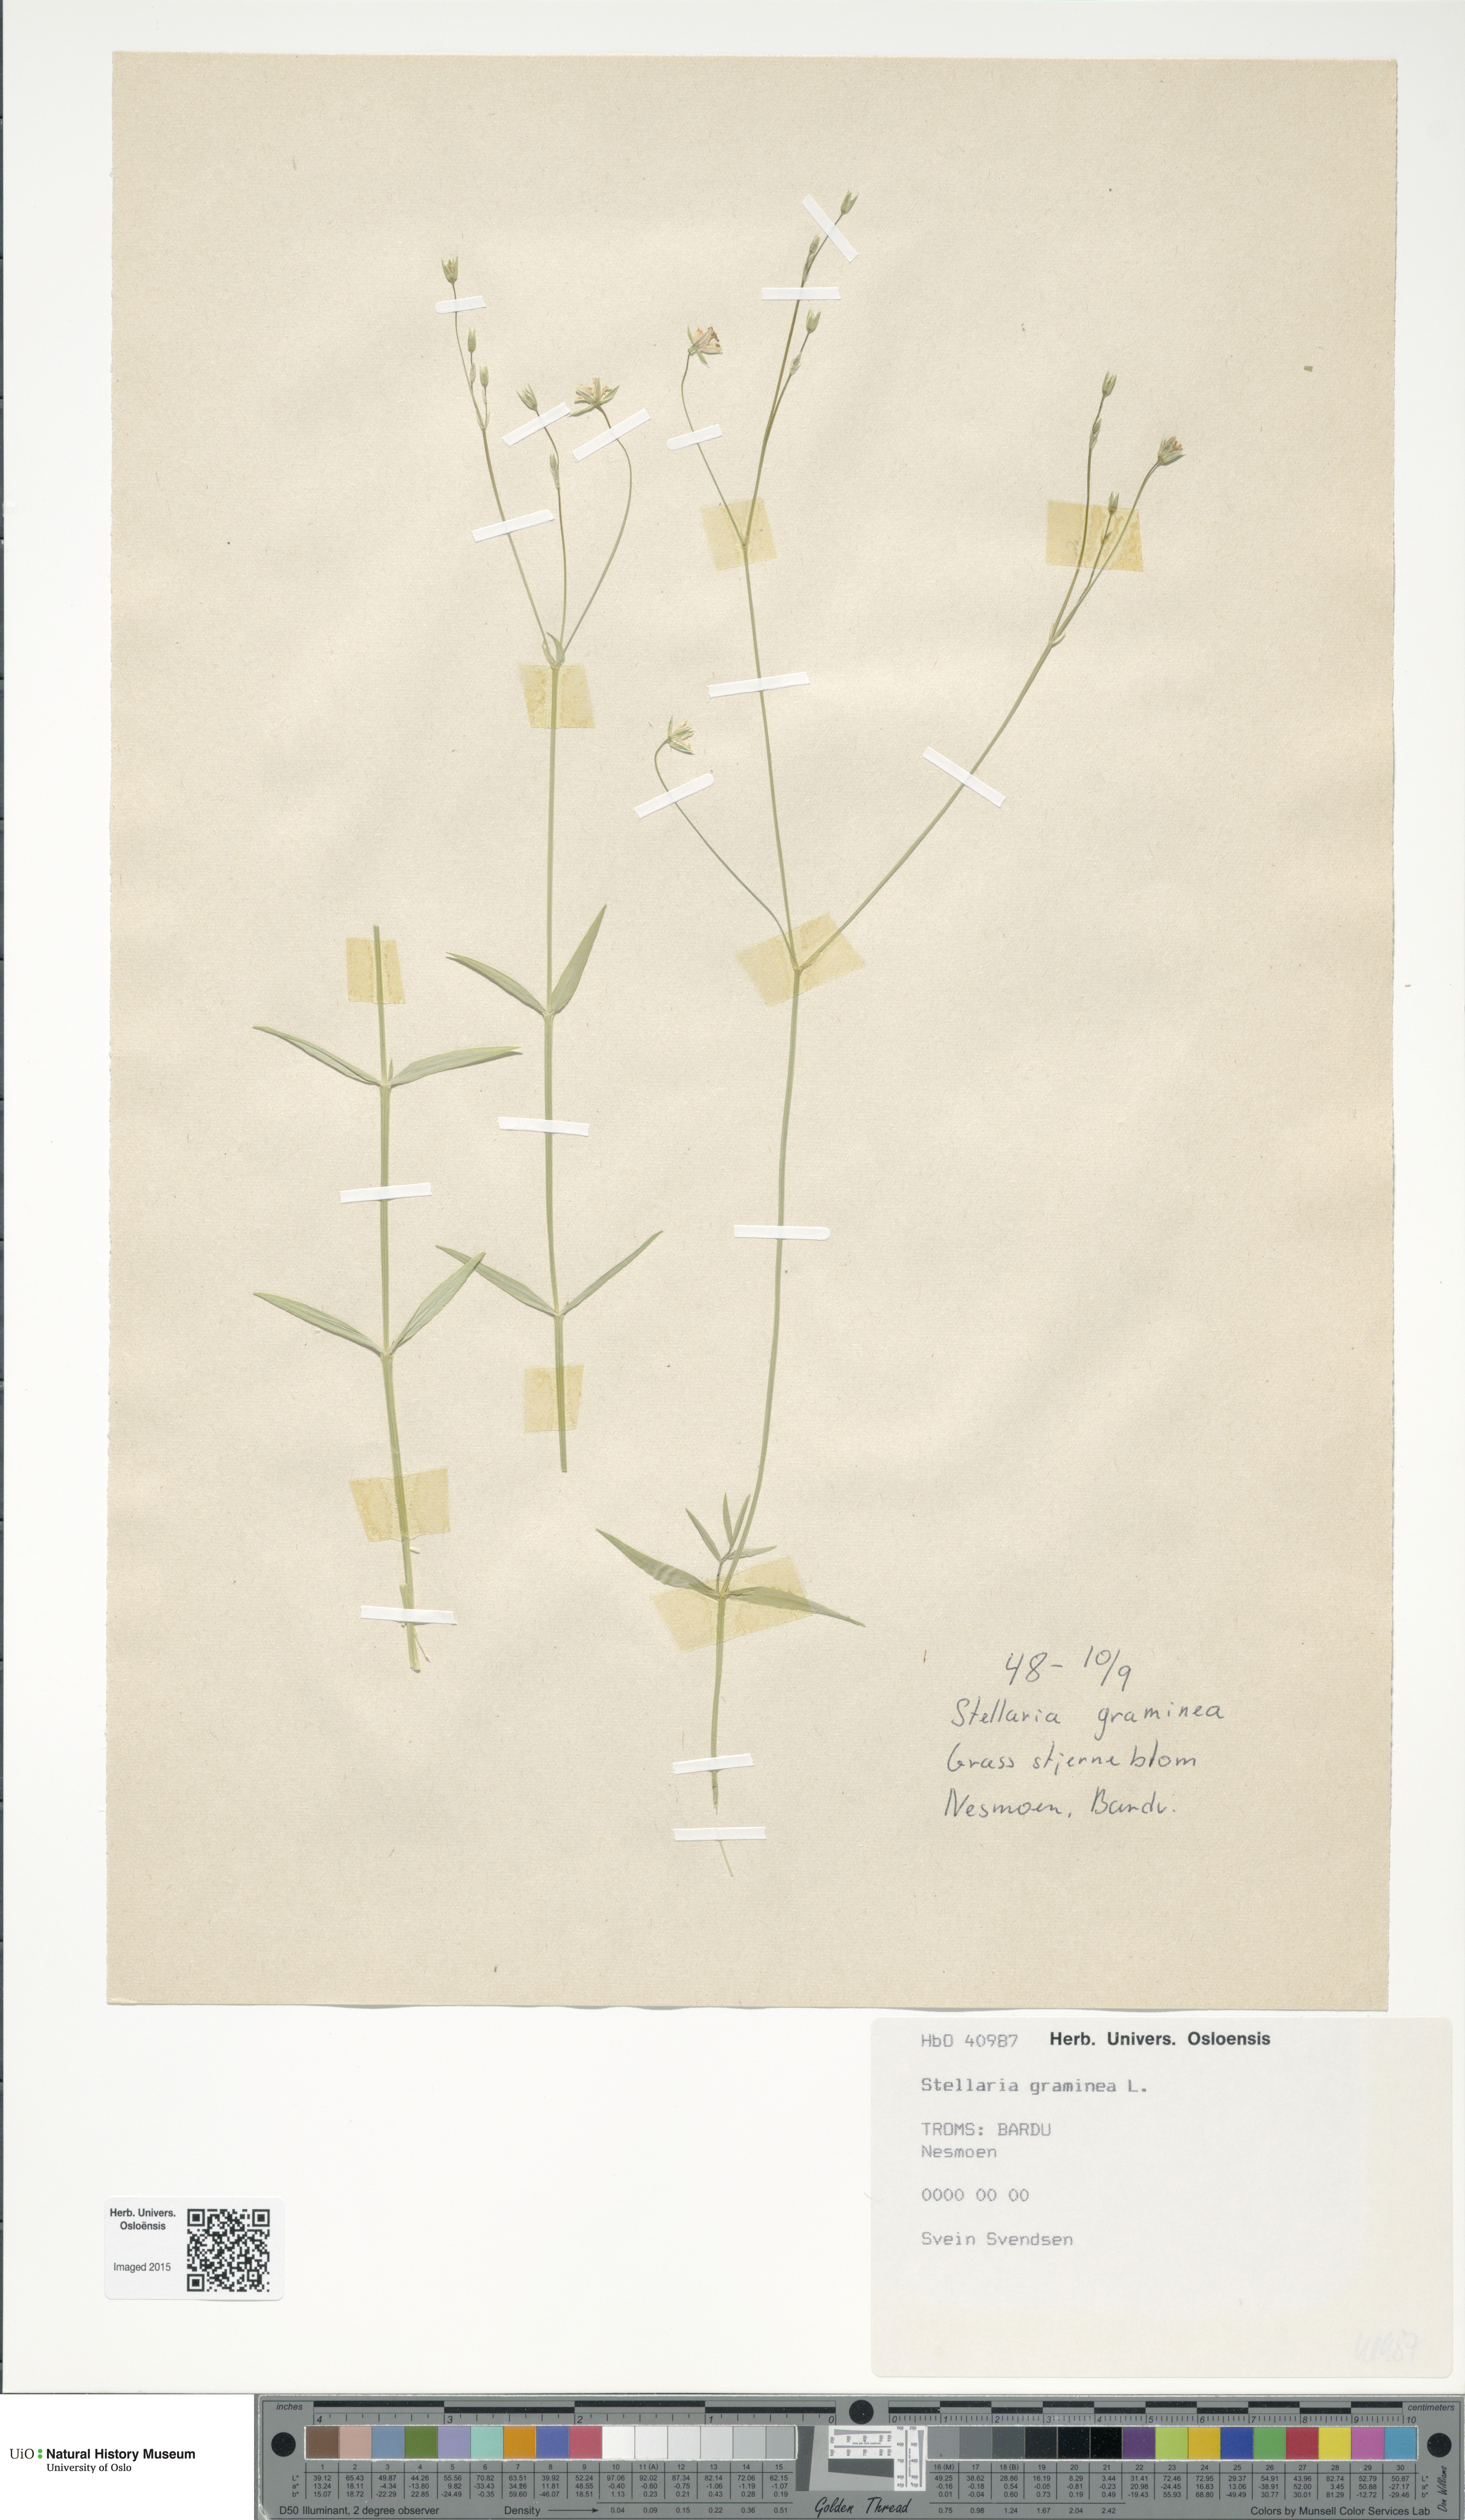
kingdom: Plantae
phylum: Tracheophyta
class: Magnoliopsida
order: Caryophyllales
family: Caryophyllaceae
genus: Stellaria
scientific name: Stellaria graminea
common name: Grass-like starwort
